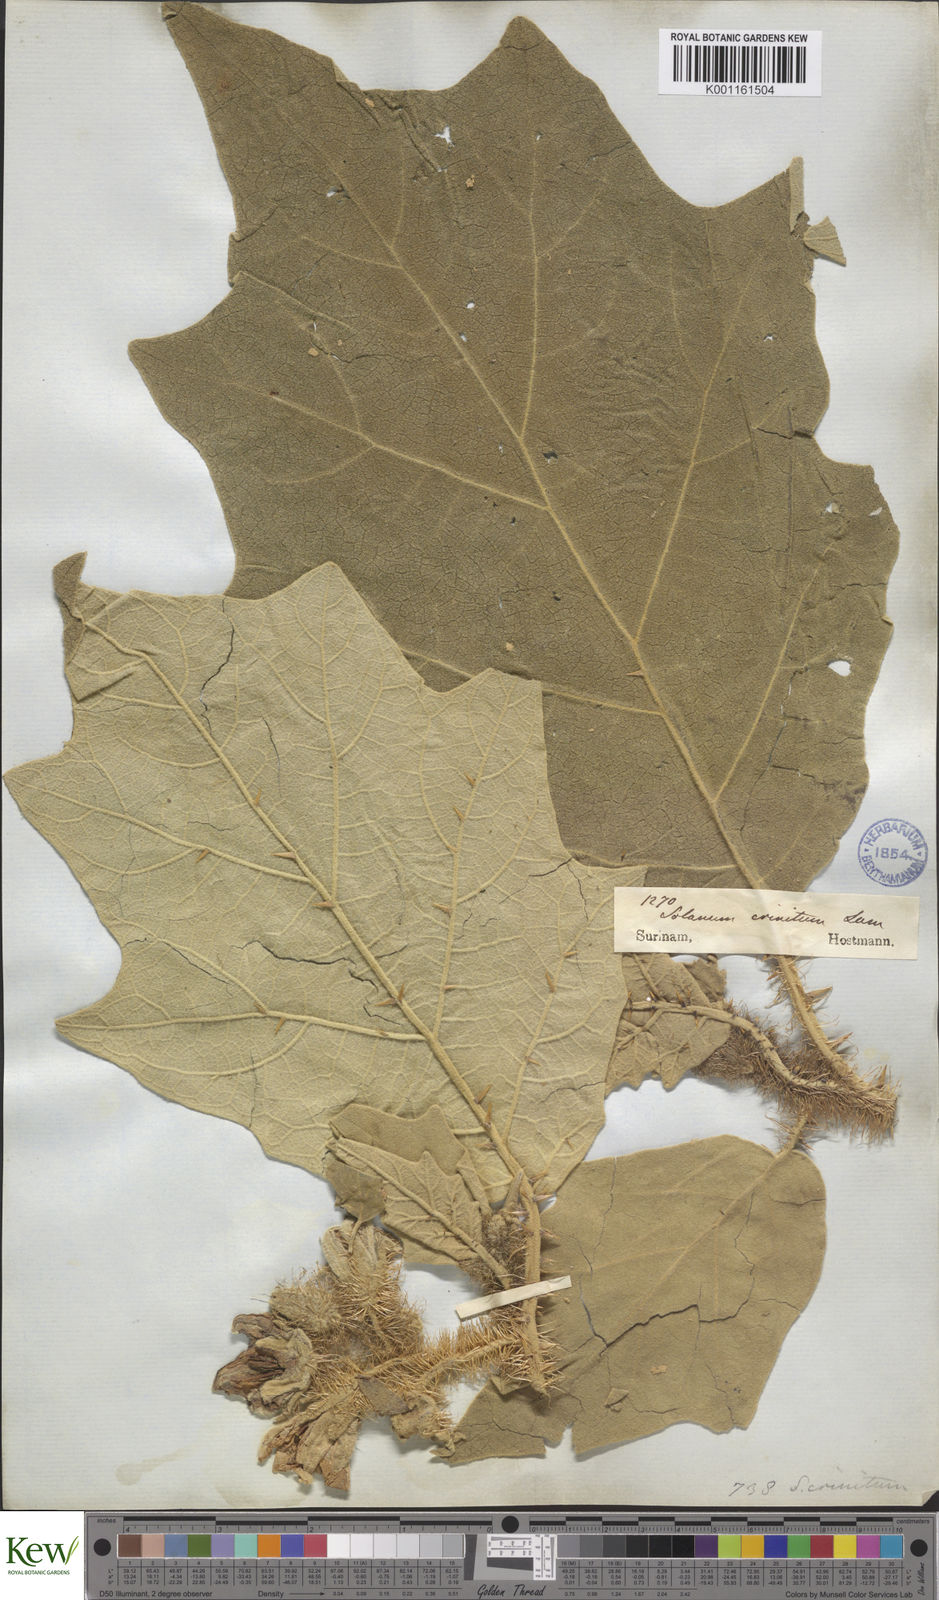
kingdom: Plantae
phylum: Tracheophyta
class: Magnoliopsida
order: Solanales
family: Solanaceae
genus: Solanum
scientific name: Solanum crinitum
